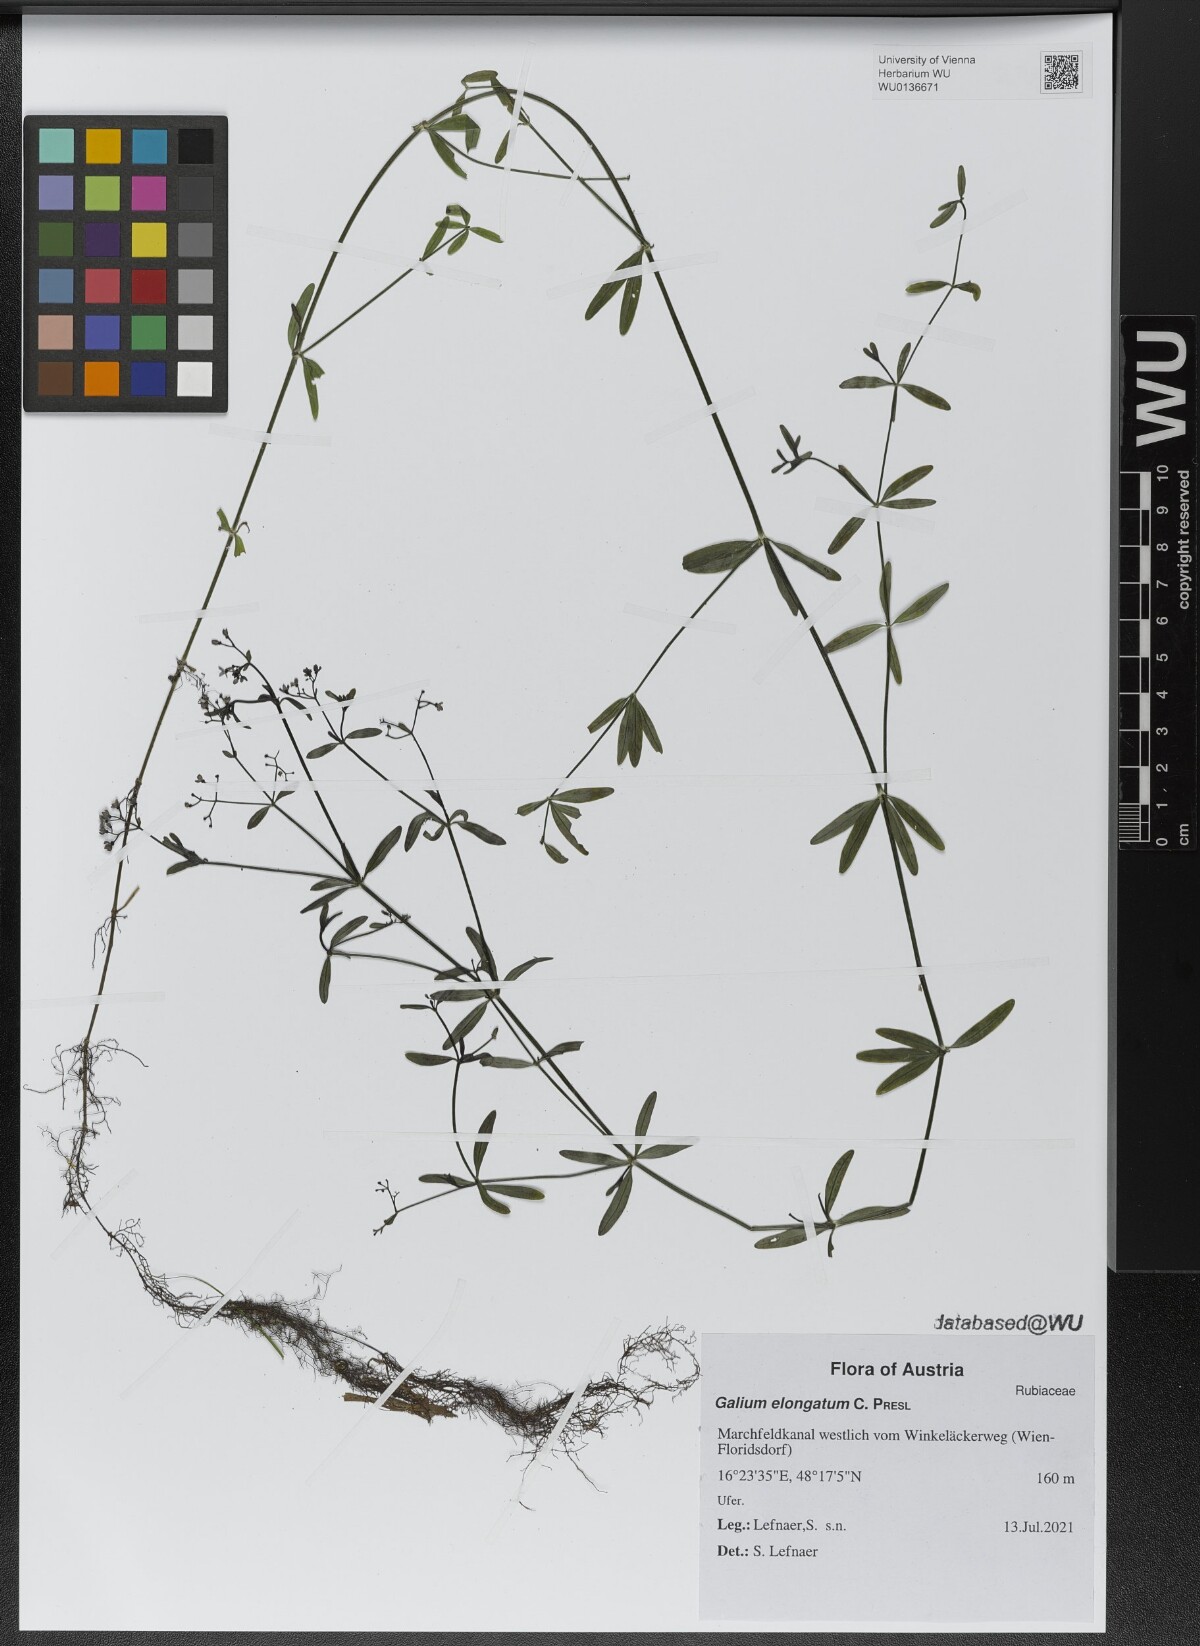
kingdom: Plantae
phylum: Tracheophyta
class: Magnoliopsida
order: Gentianales
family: Rubiaceae
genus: Galium
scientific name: Galium elongatum
